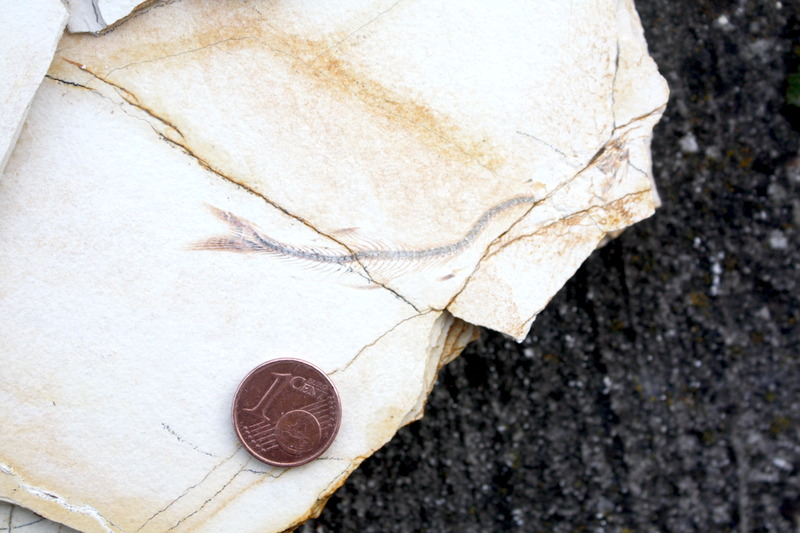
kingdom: Animalia
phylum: Chordata
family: Allothrissopidae
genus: Allothrissops
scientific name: Allothrissops mesogaster
